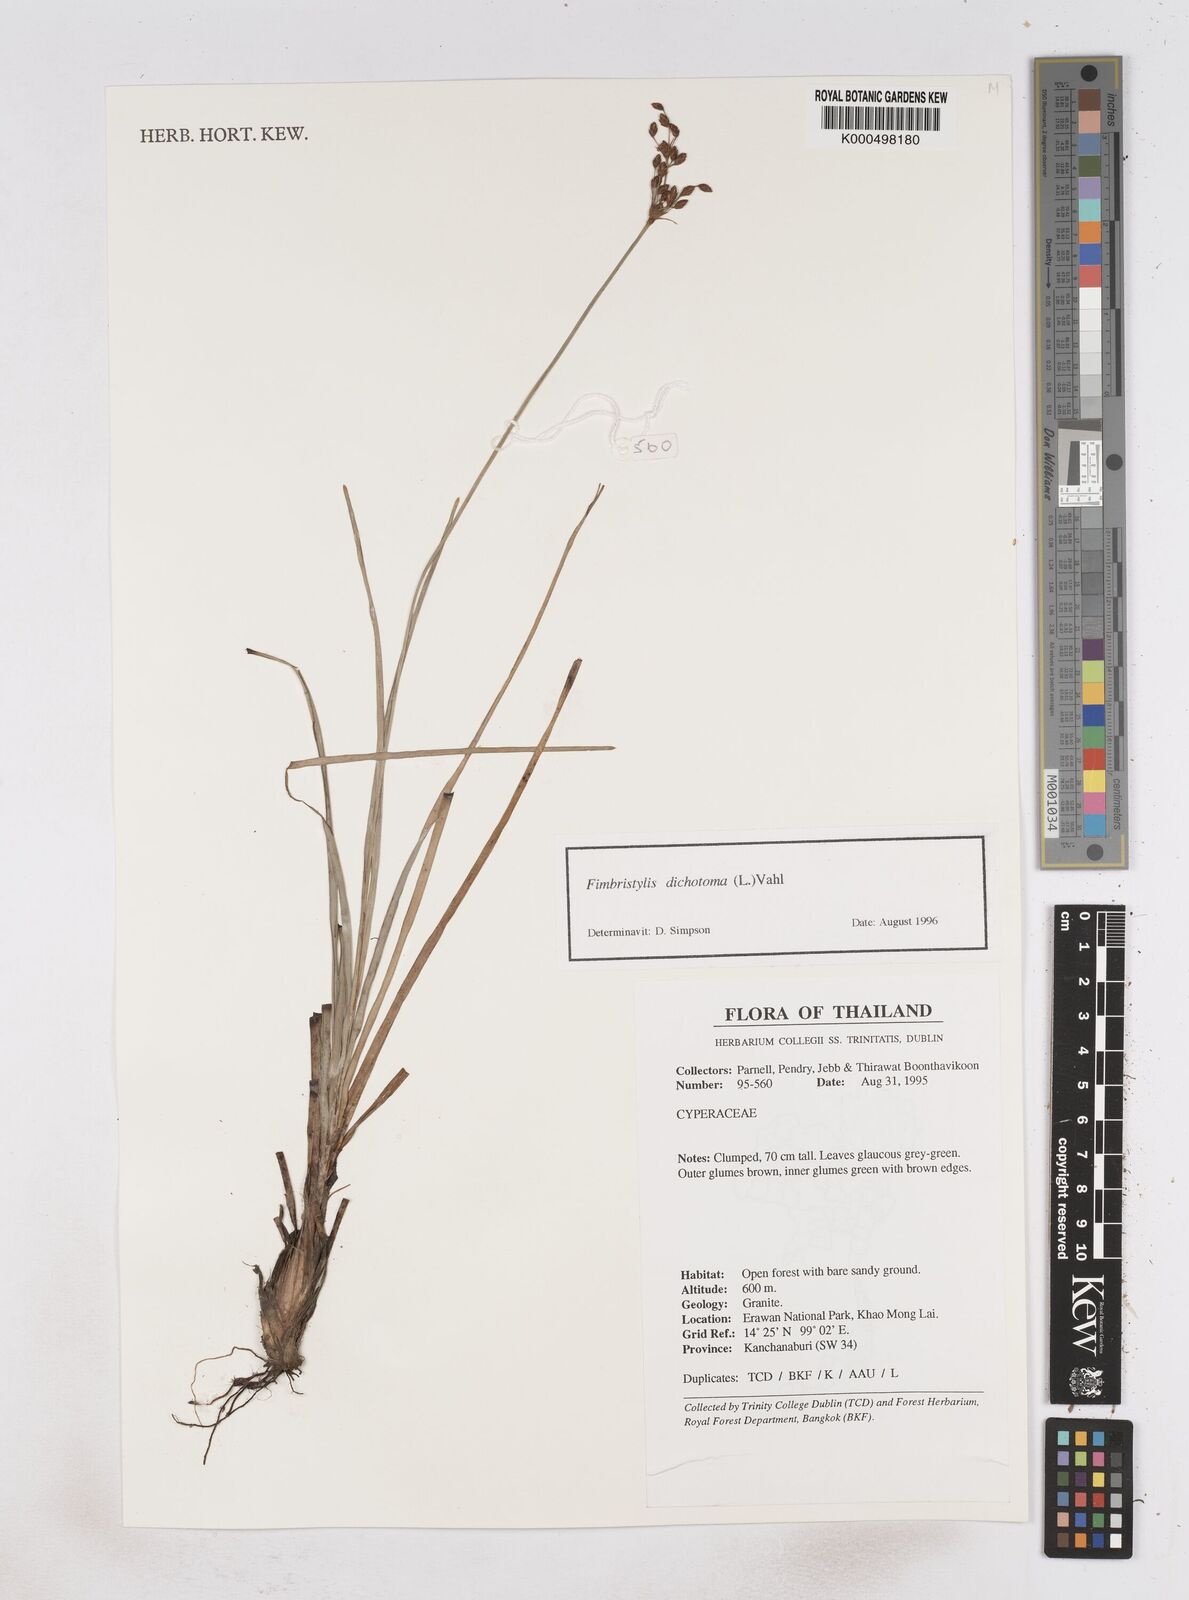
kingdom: Plantae
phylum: Tracheophyta
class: Liliopsida
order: Poales
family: Cyperaceae
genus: Fimbristylis
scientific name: Fimbristylis dichotoma
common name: Forked fimbry
